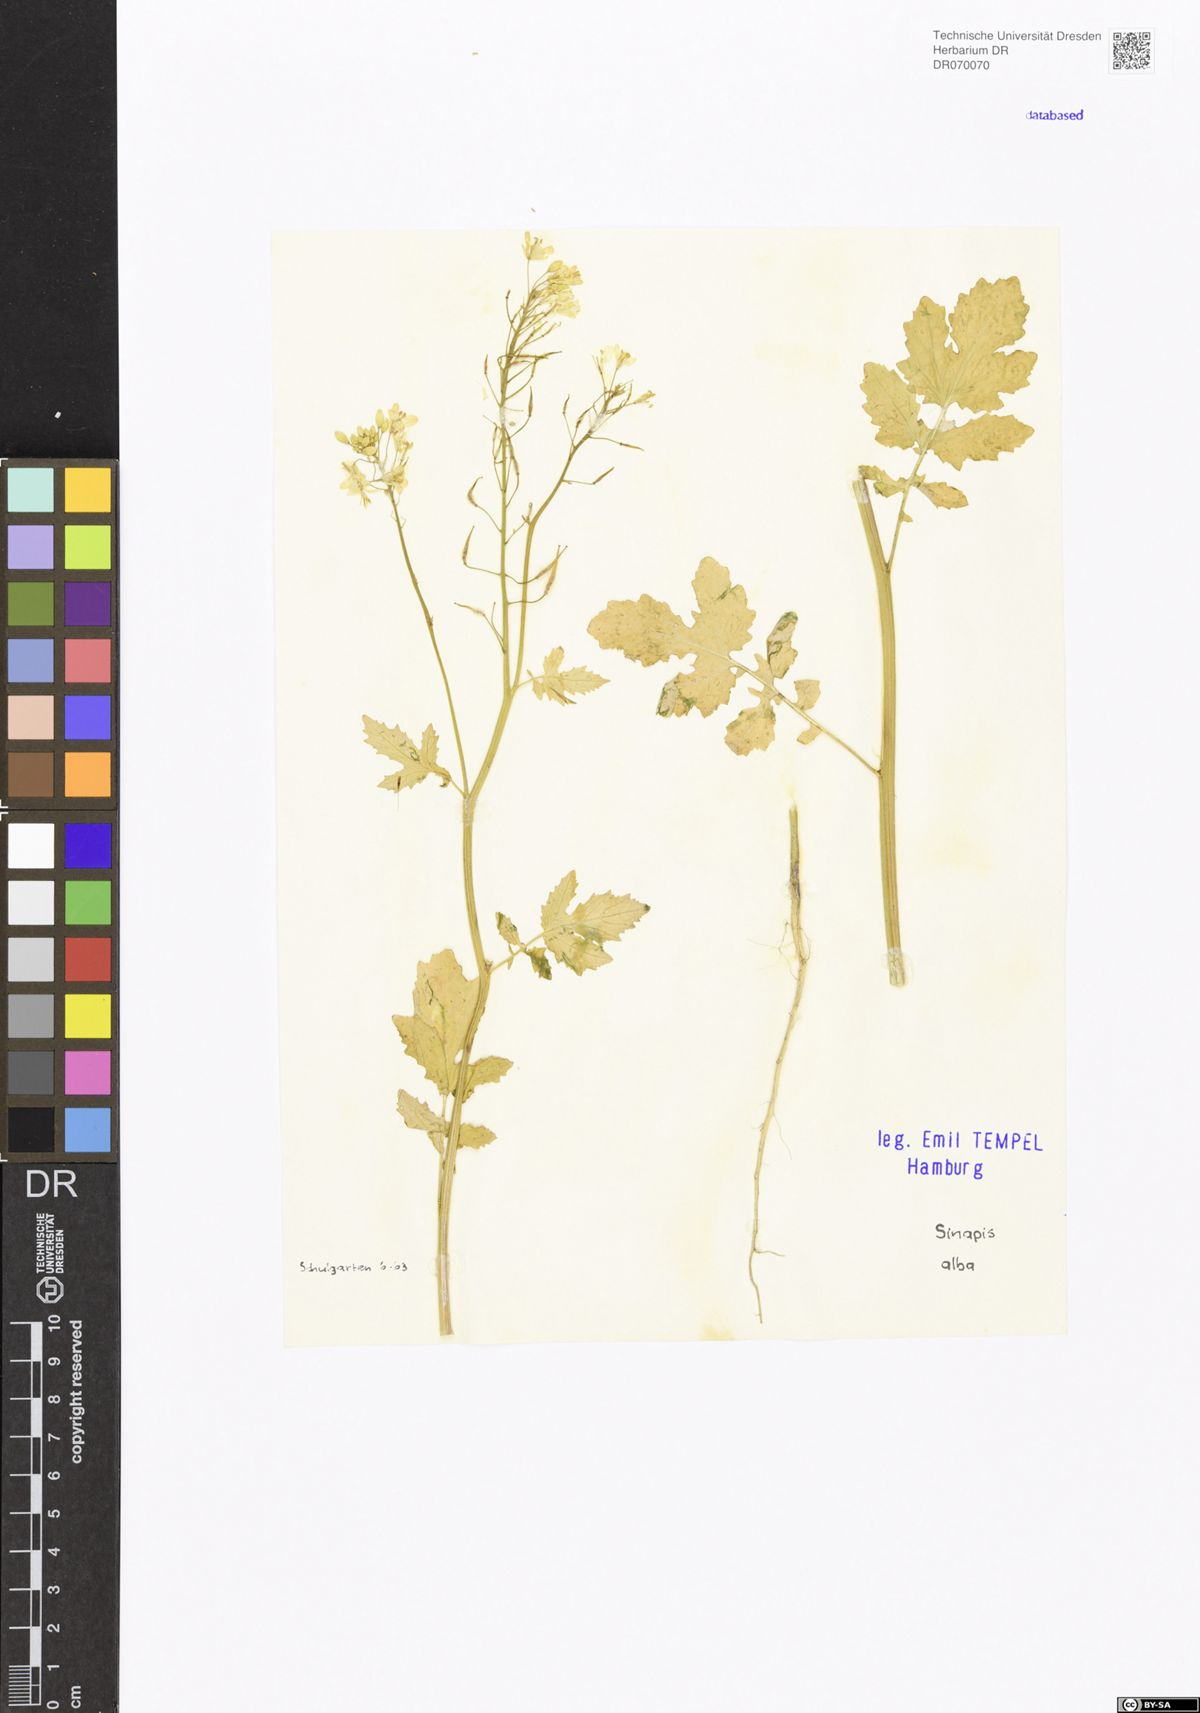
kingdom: Plantae
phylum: Tracheophyta
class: Magnoliopsida
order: Brassicales
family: Brassicaceae
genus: Sinapis
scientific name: Sinapis alba
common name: White mustard
